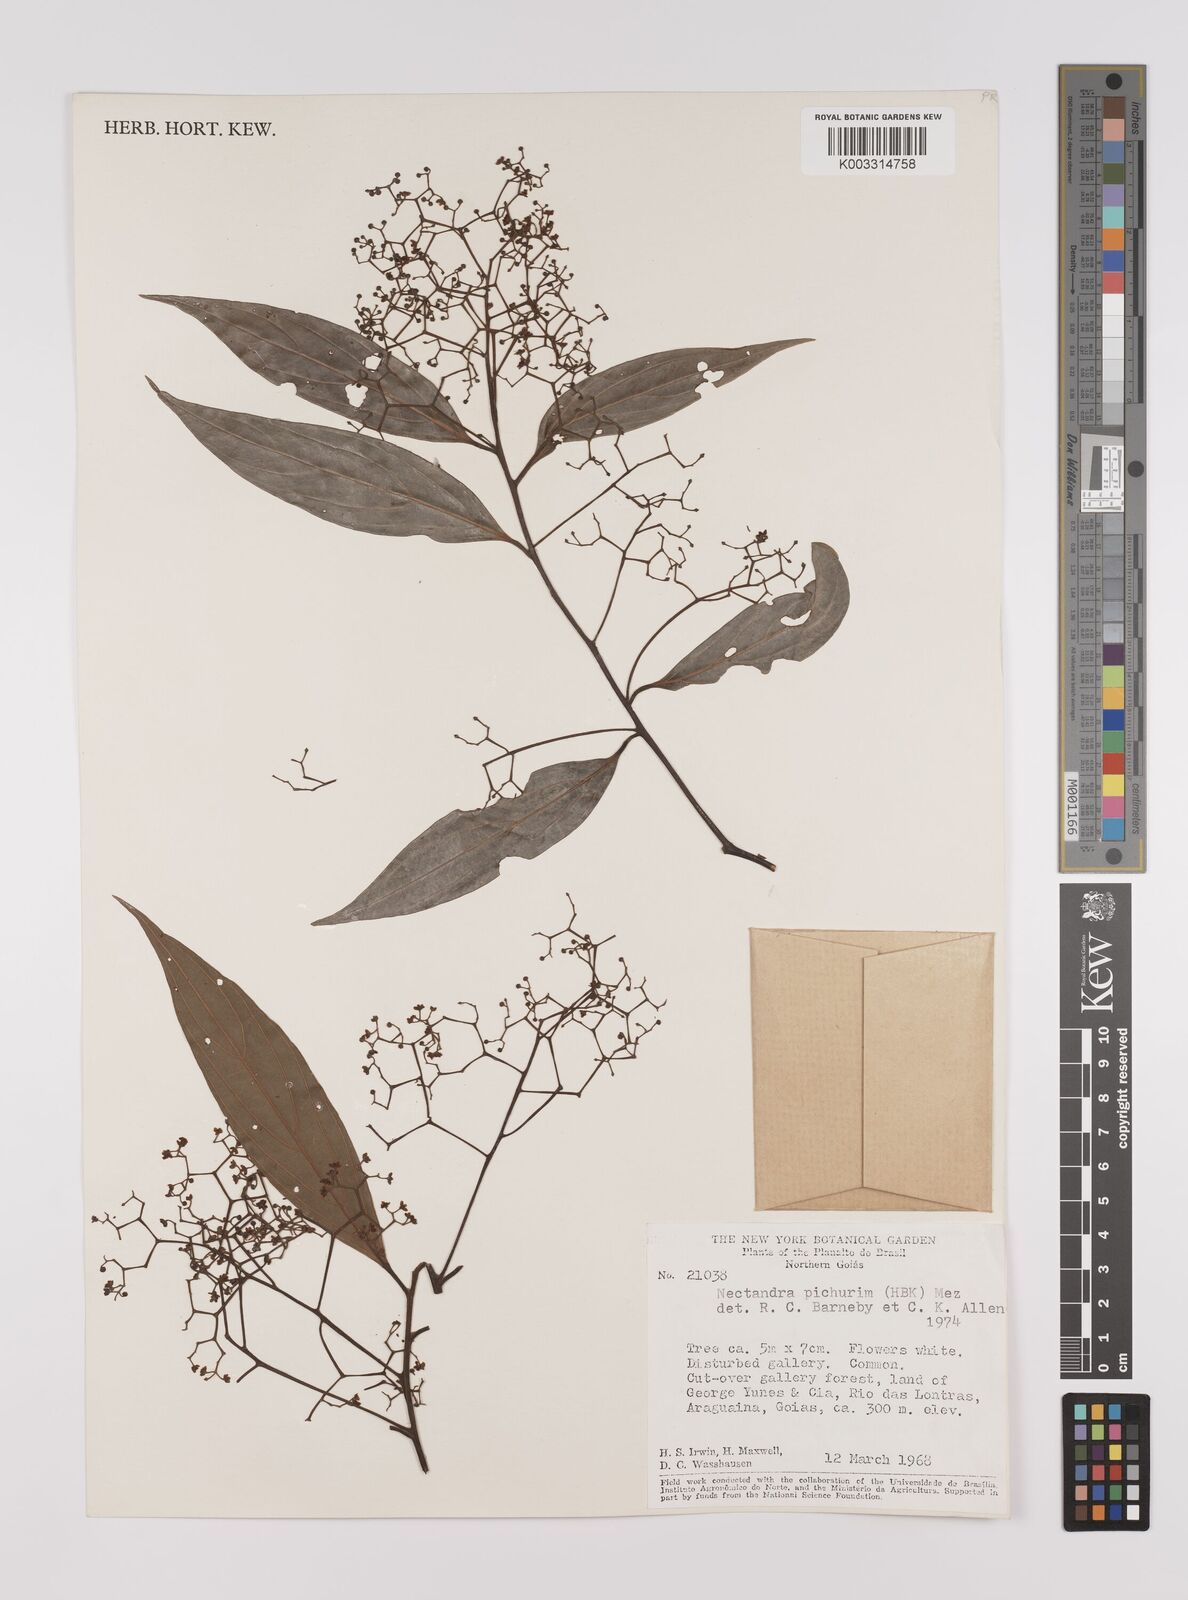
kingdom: Plantae
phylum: Tracheophyta
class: Magnoliopsida
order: Laurales
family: Lauraceae
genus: Nectandra
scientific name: Nectandra cuspidata
